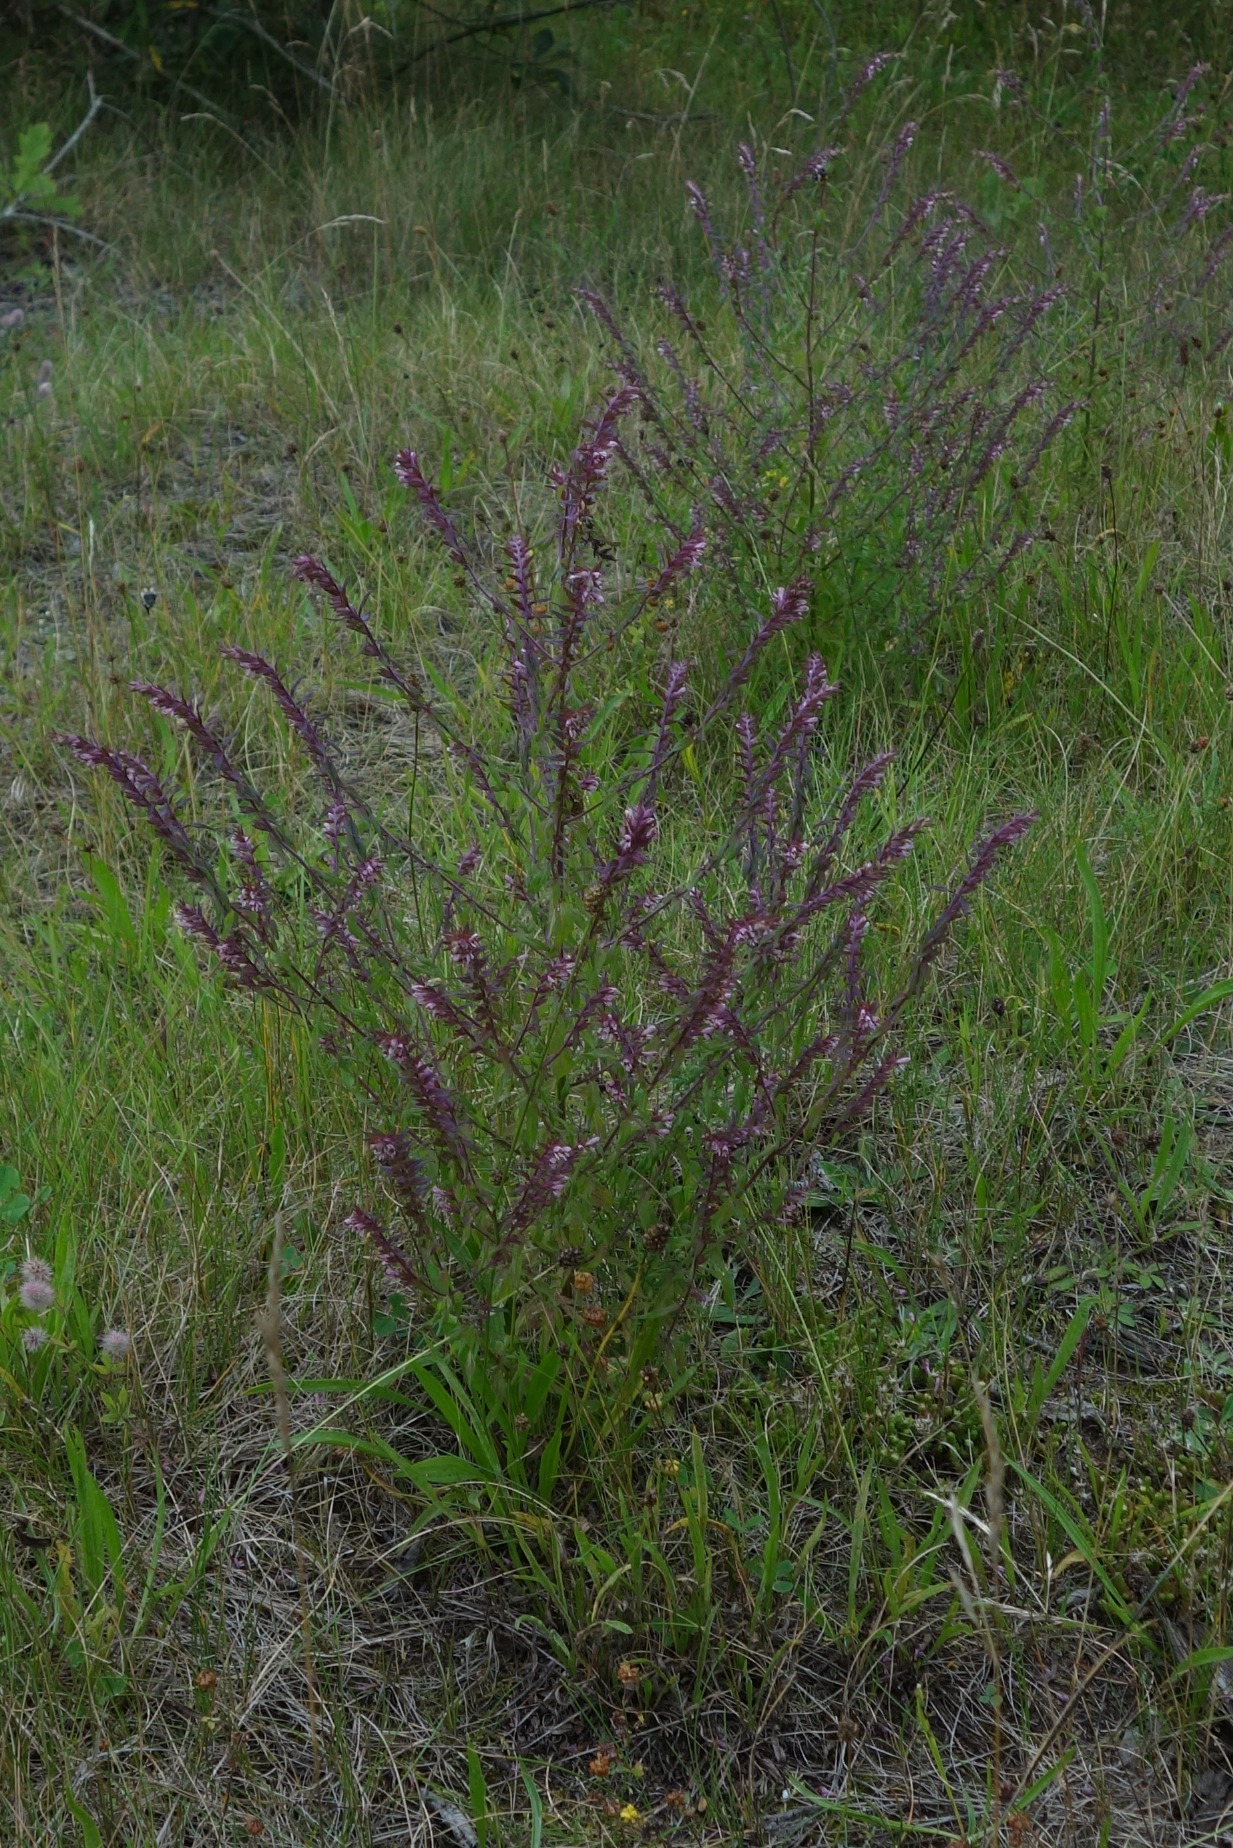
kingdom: Plantae
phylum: Tracheophyta
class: Magnoliopsida
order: Lamiales
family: Orobanchaceae
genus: Odontites
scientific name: Odontites vulgaris
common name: Høst-rødtop
